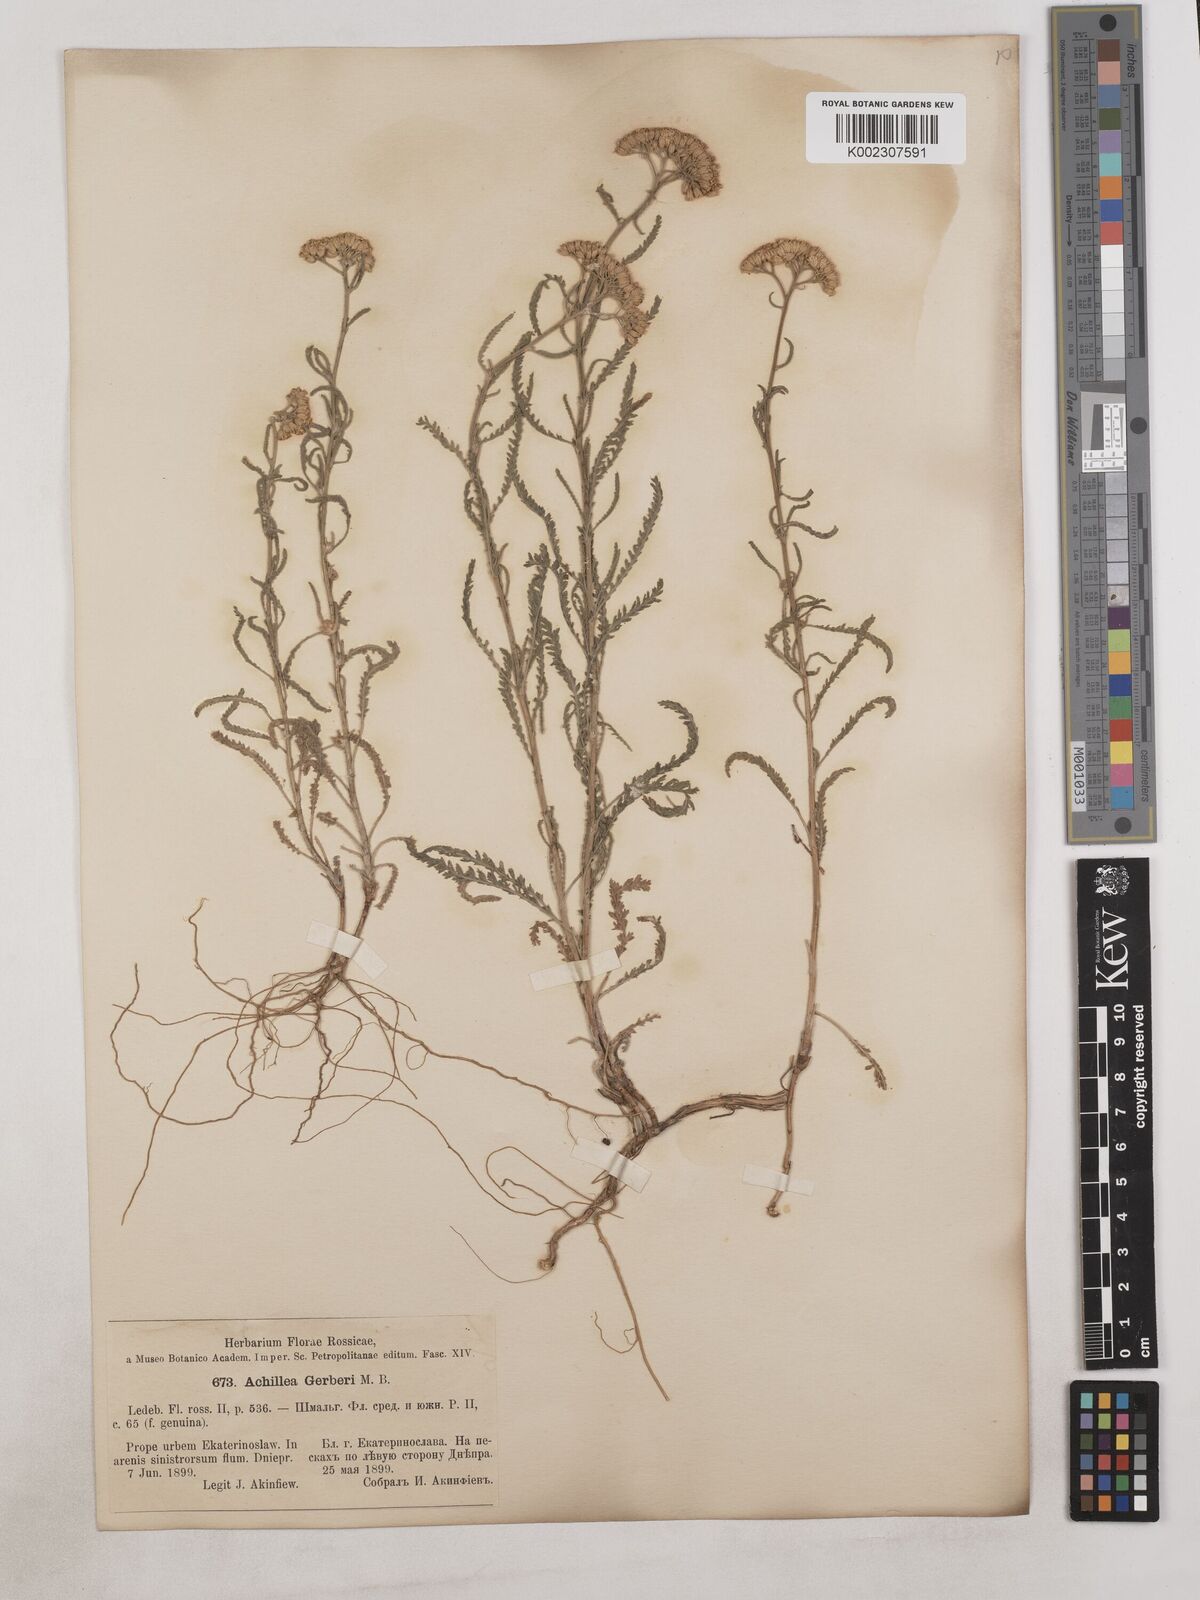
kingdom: Plantae
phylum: Tracheophyta
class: Magnoliopsida
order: Asterales
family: Asteraceae
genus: Achillea
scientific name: Achillea
